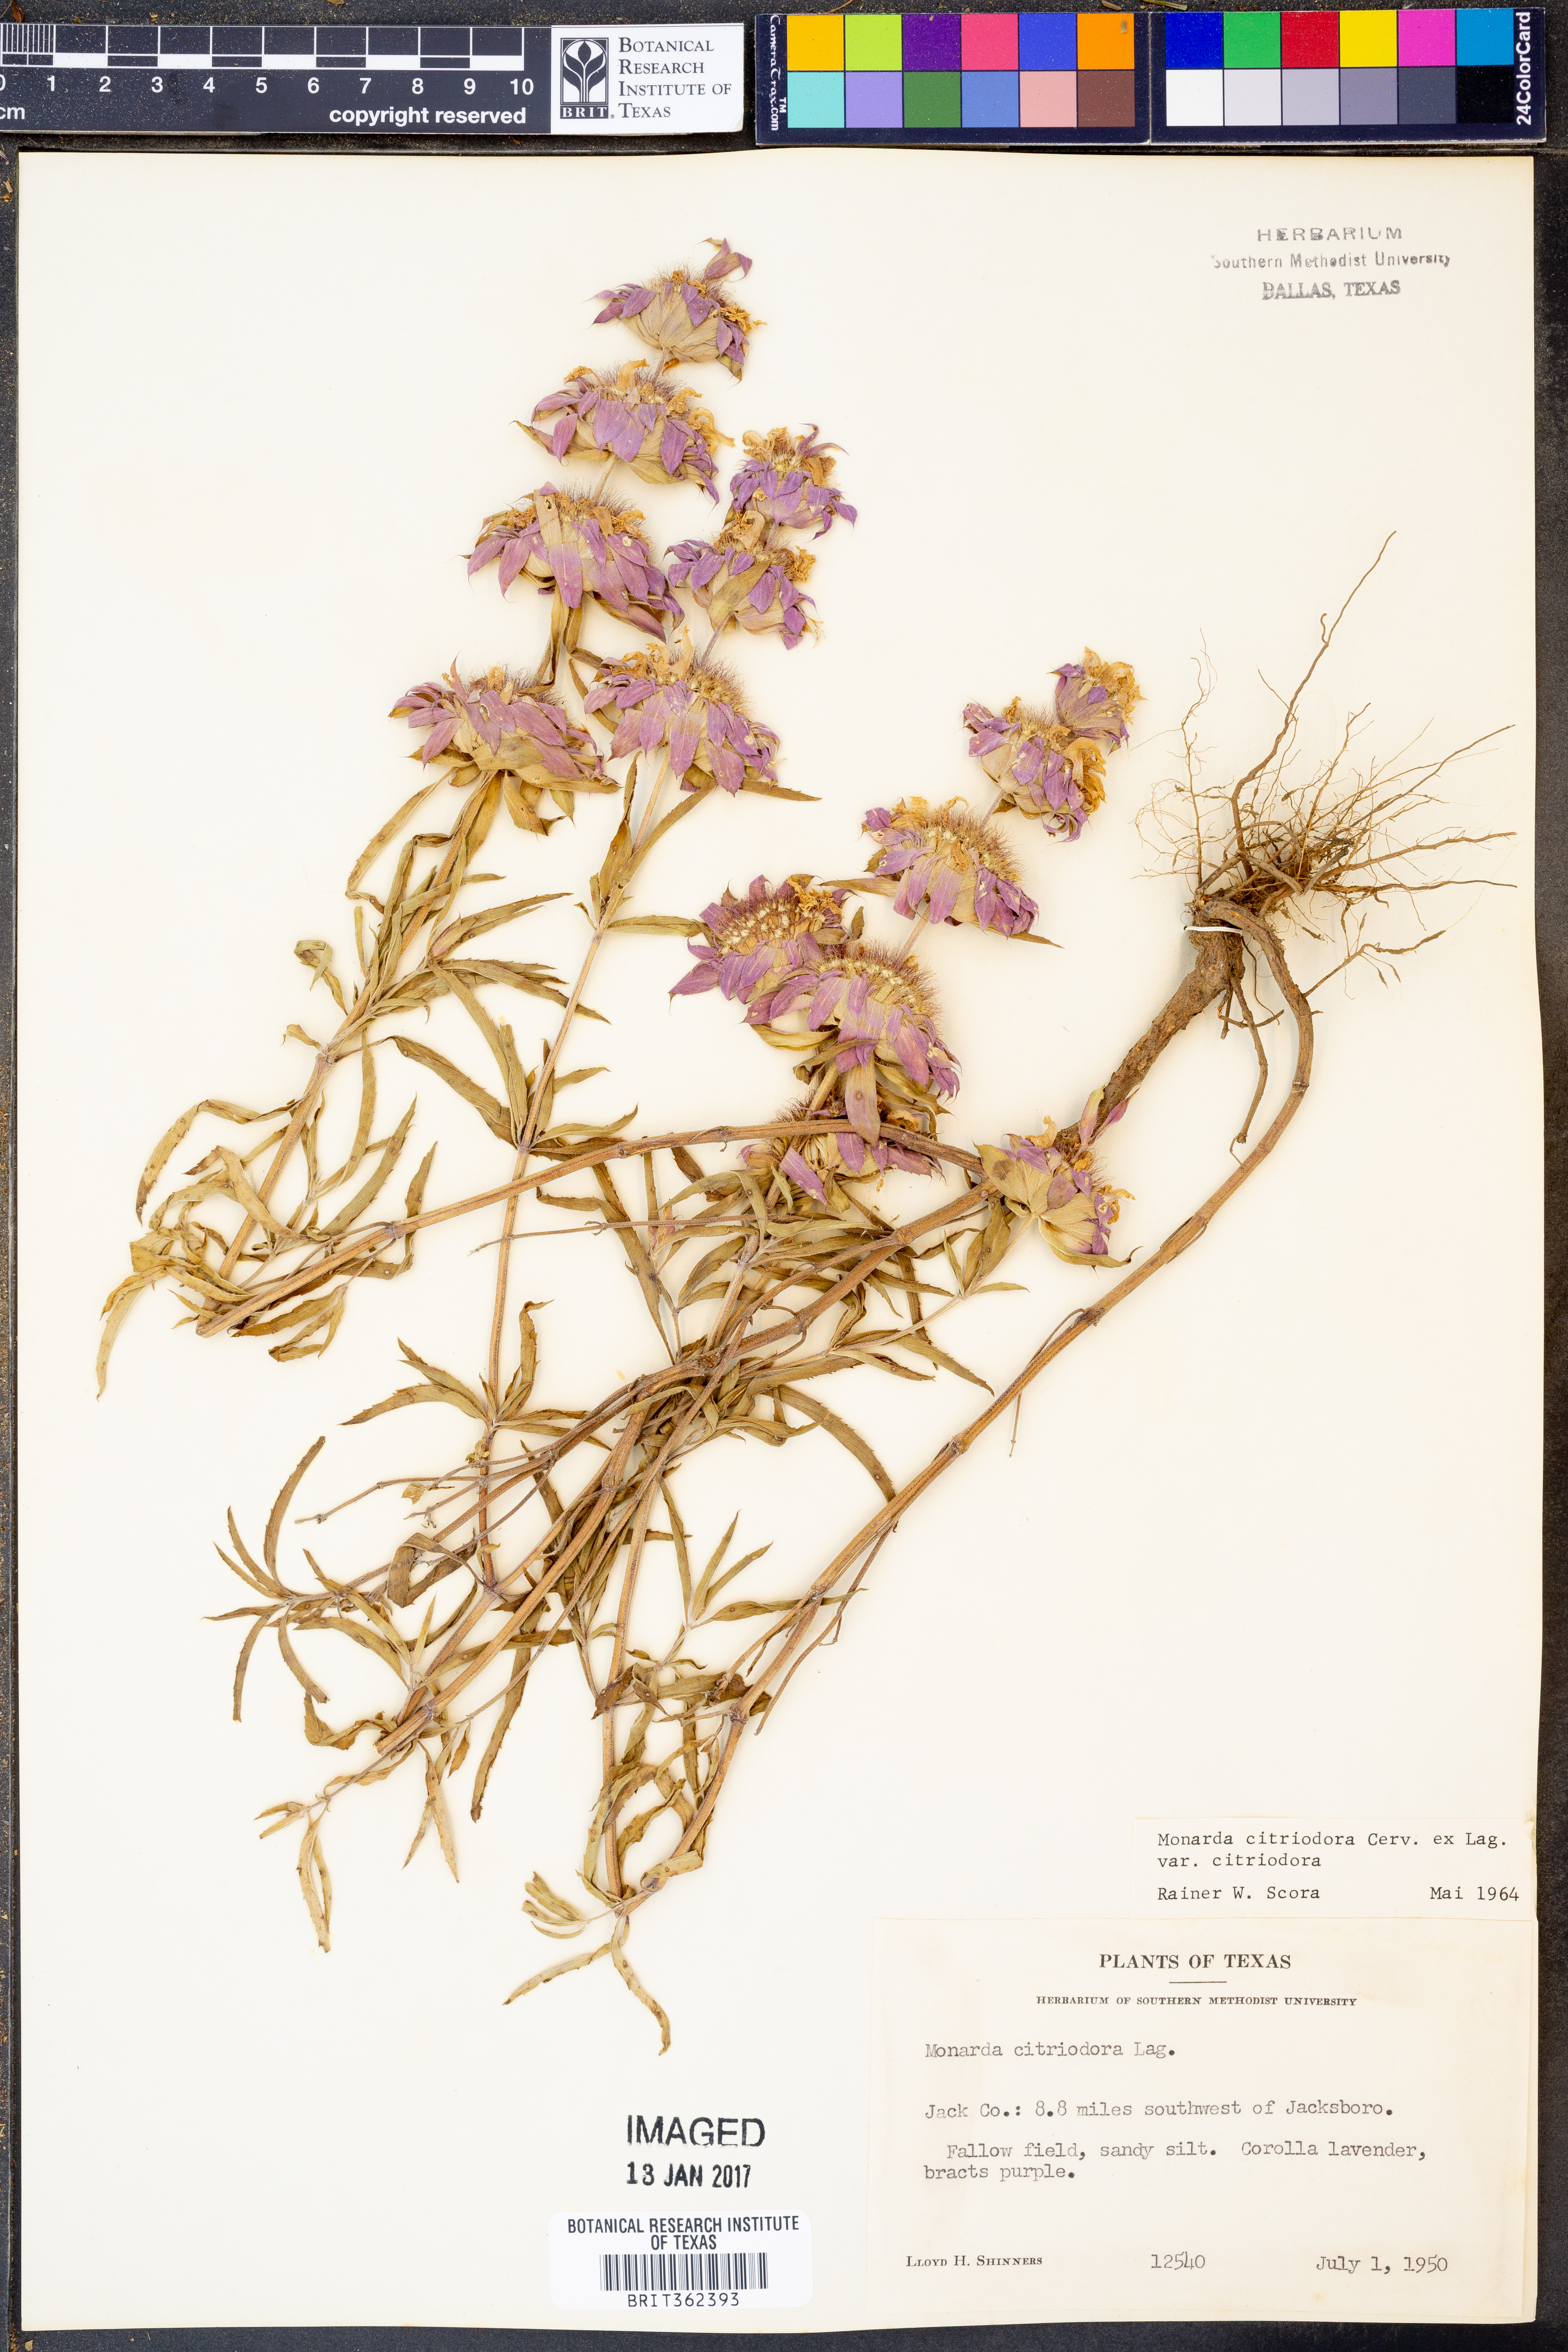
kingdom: Plantae
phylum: Tracheophyta
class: Magnoliopsida
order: Lamiales
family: Lamiaceae
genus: Monarda
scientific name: Monarda citriodora
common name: Lemon beebalm
